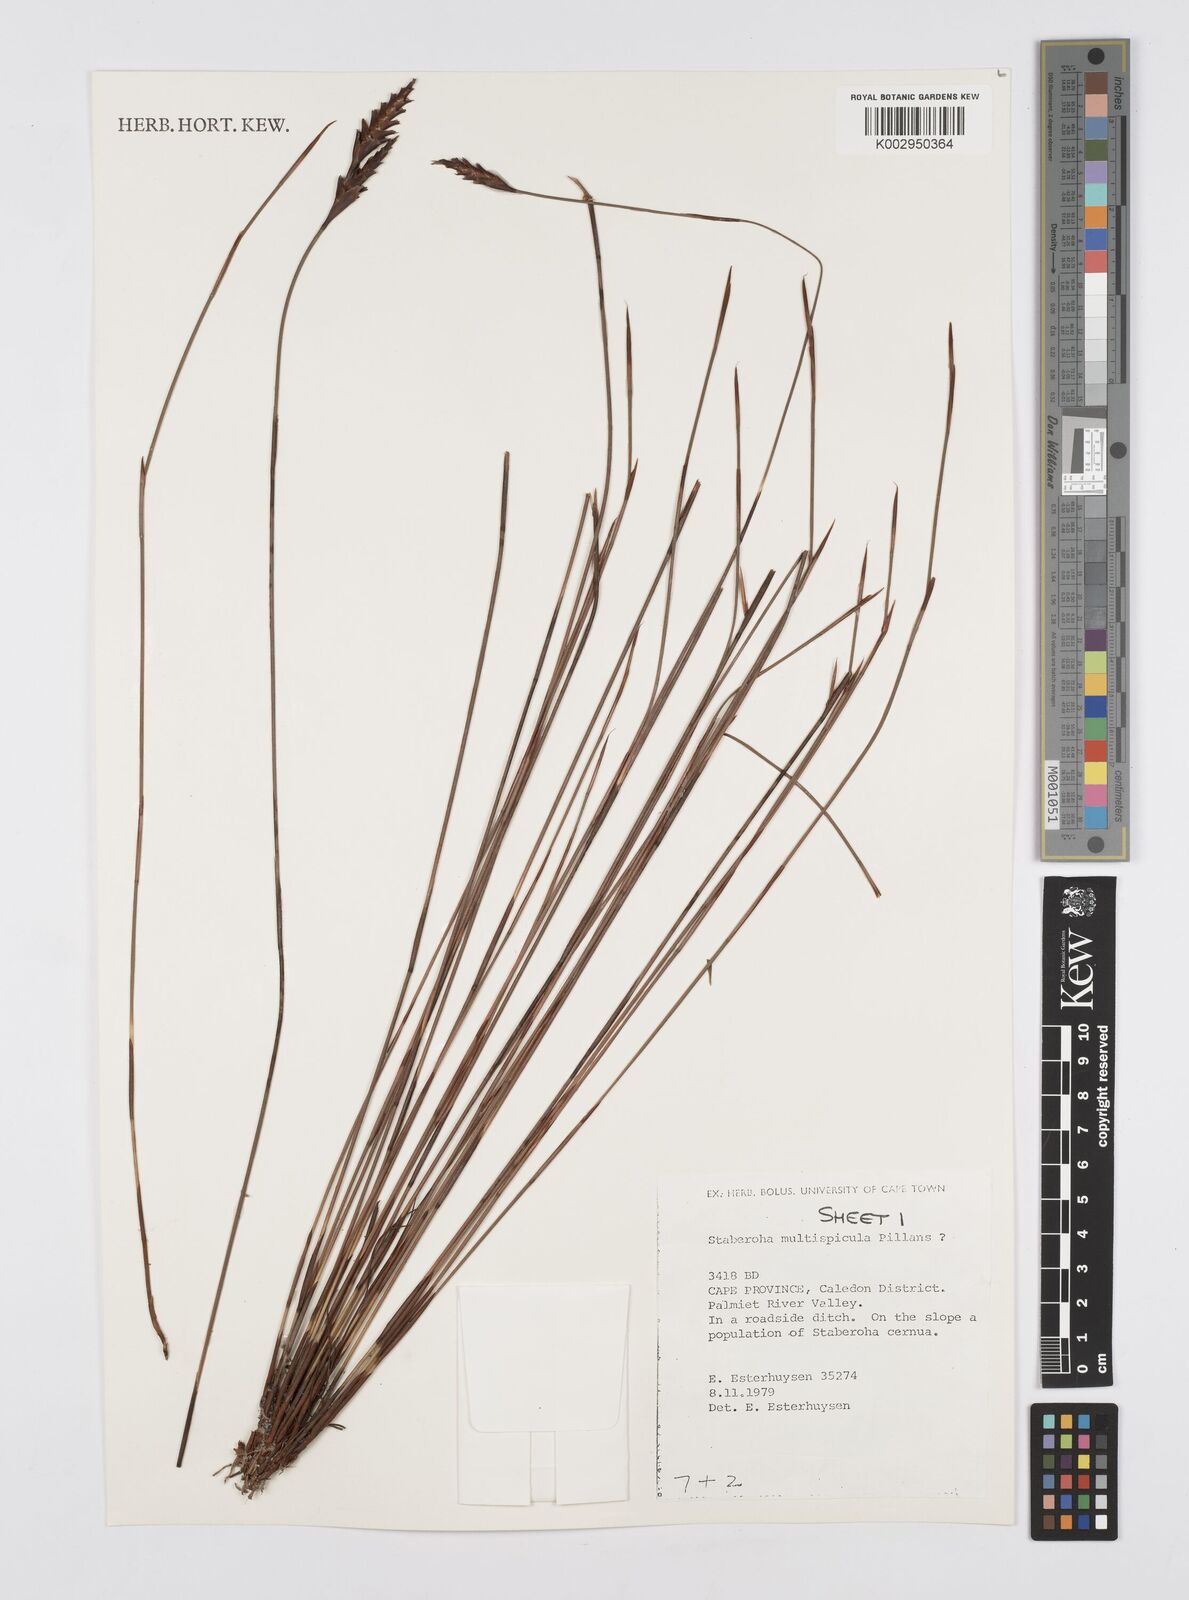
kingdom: Plantae
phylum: Tracheophyta
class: Liliopsida
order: Poales
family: Restionaceae
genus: Staberoha
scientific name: Staberoha multispicula
